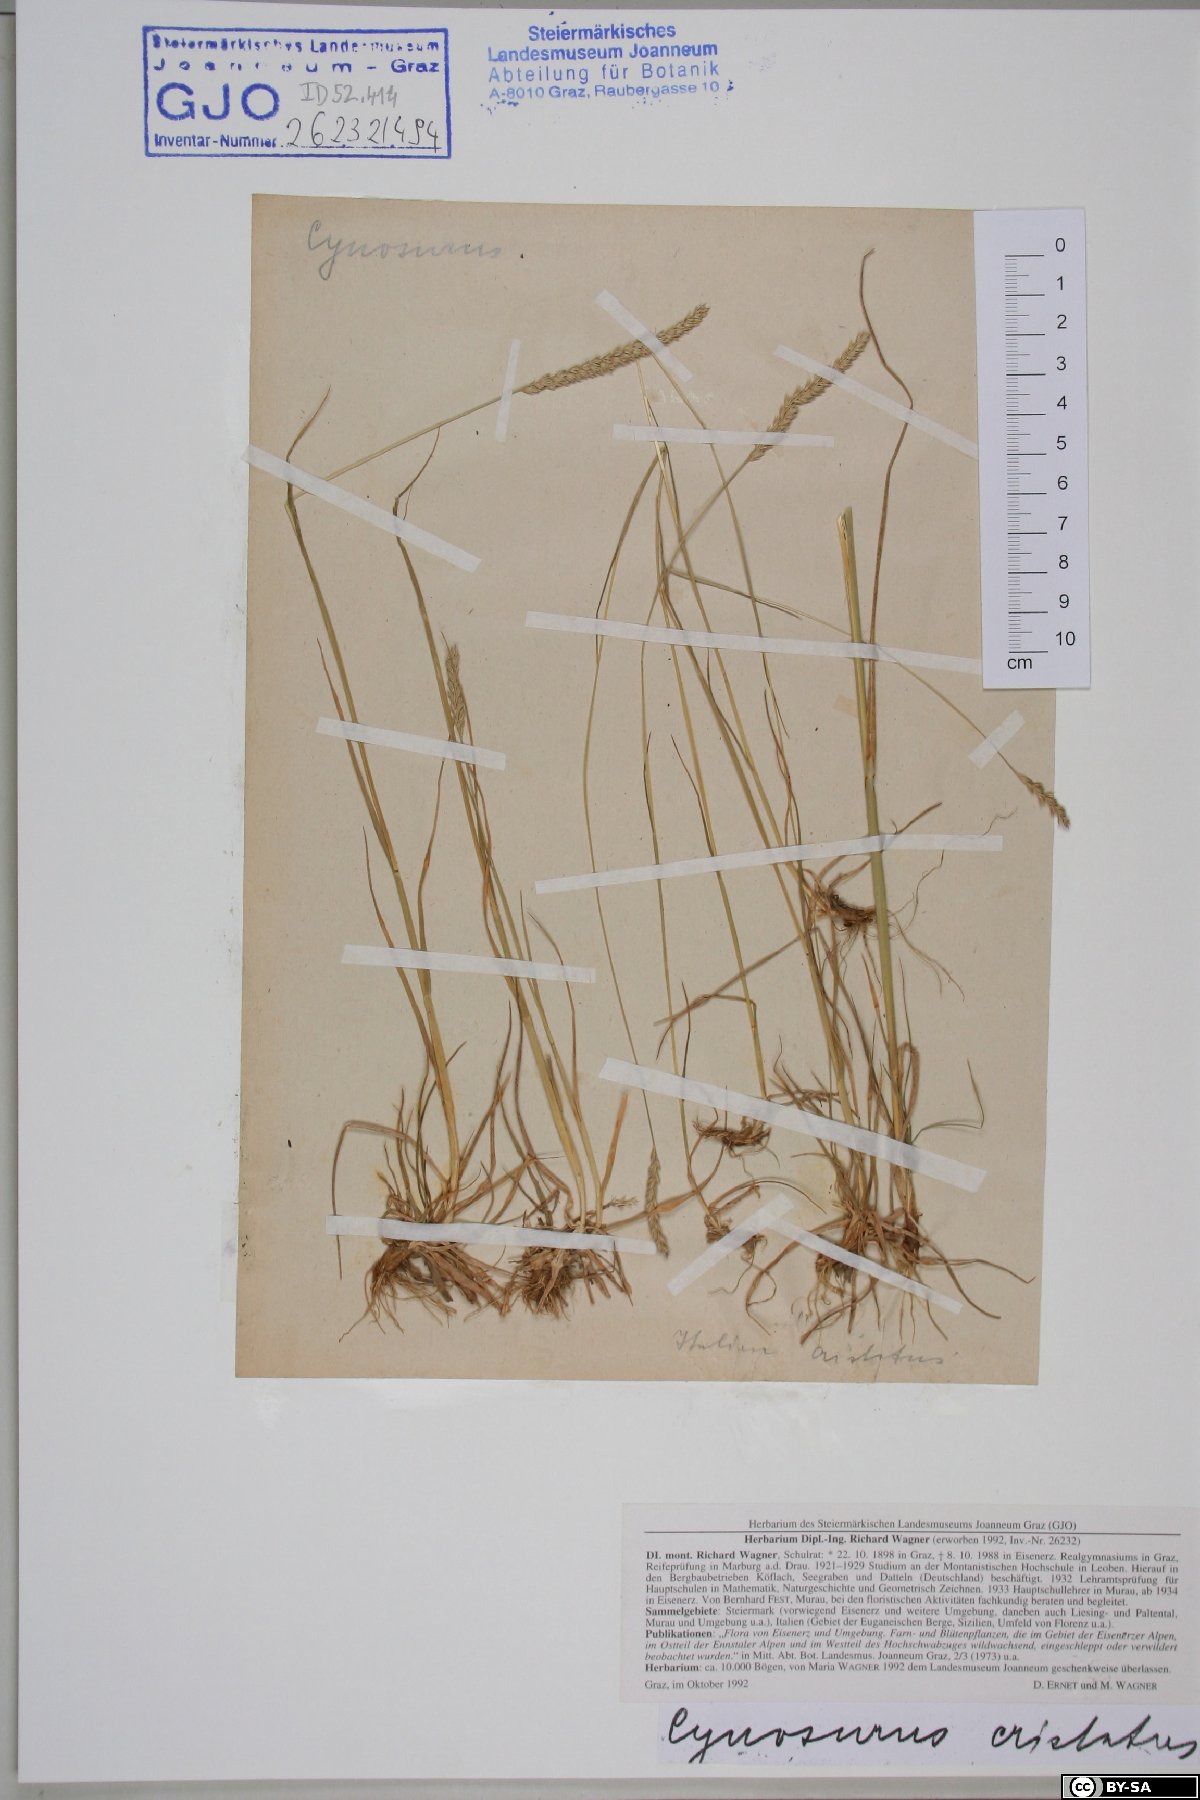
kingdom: Plantae
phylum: Tracheophyta
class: Liliopsida
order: Poales
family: Poaceae
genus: Cynosurus
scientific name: Cynosurus cristatus
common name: Crested dog's-tail
